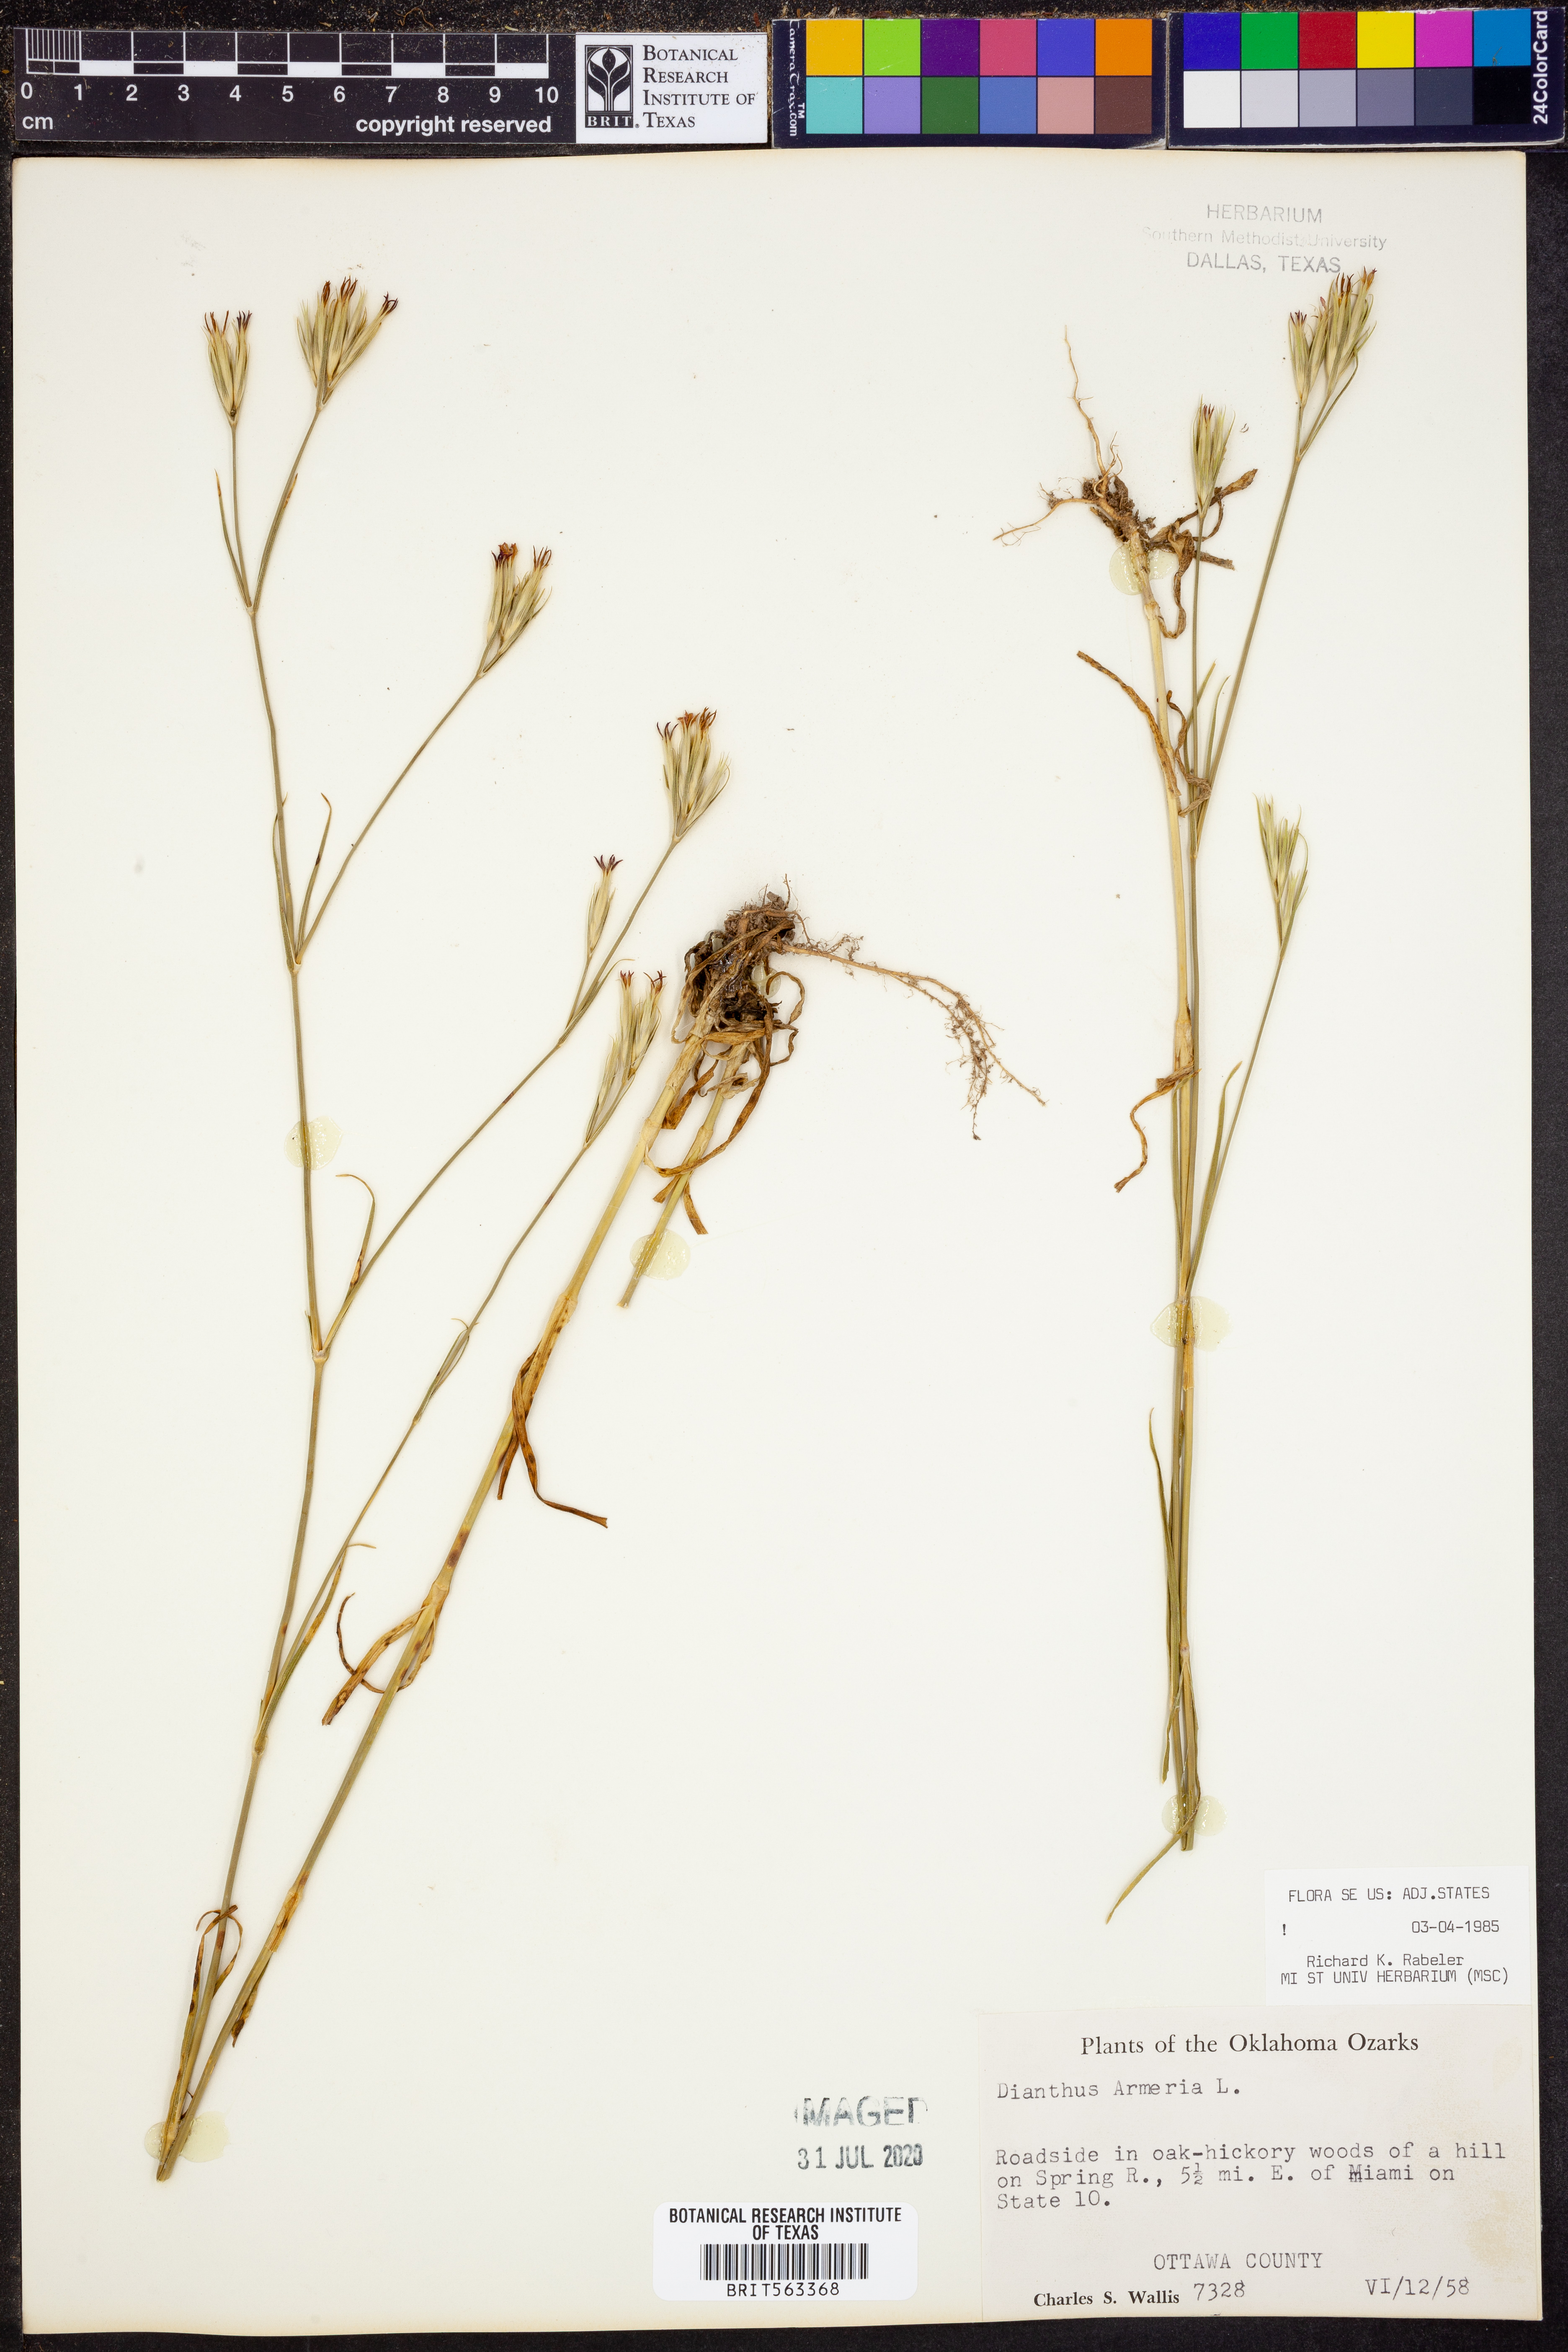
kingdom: Plantae
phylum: Tracheophyta
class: Magnoliopsida
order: Caryophyllales
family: Caryophyllaceae
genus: Dianthus
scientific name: Dianthus armeria
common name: Deptford pink
